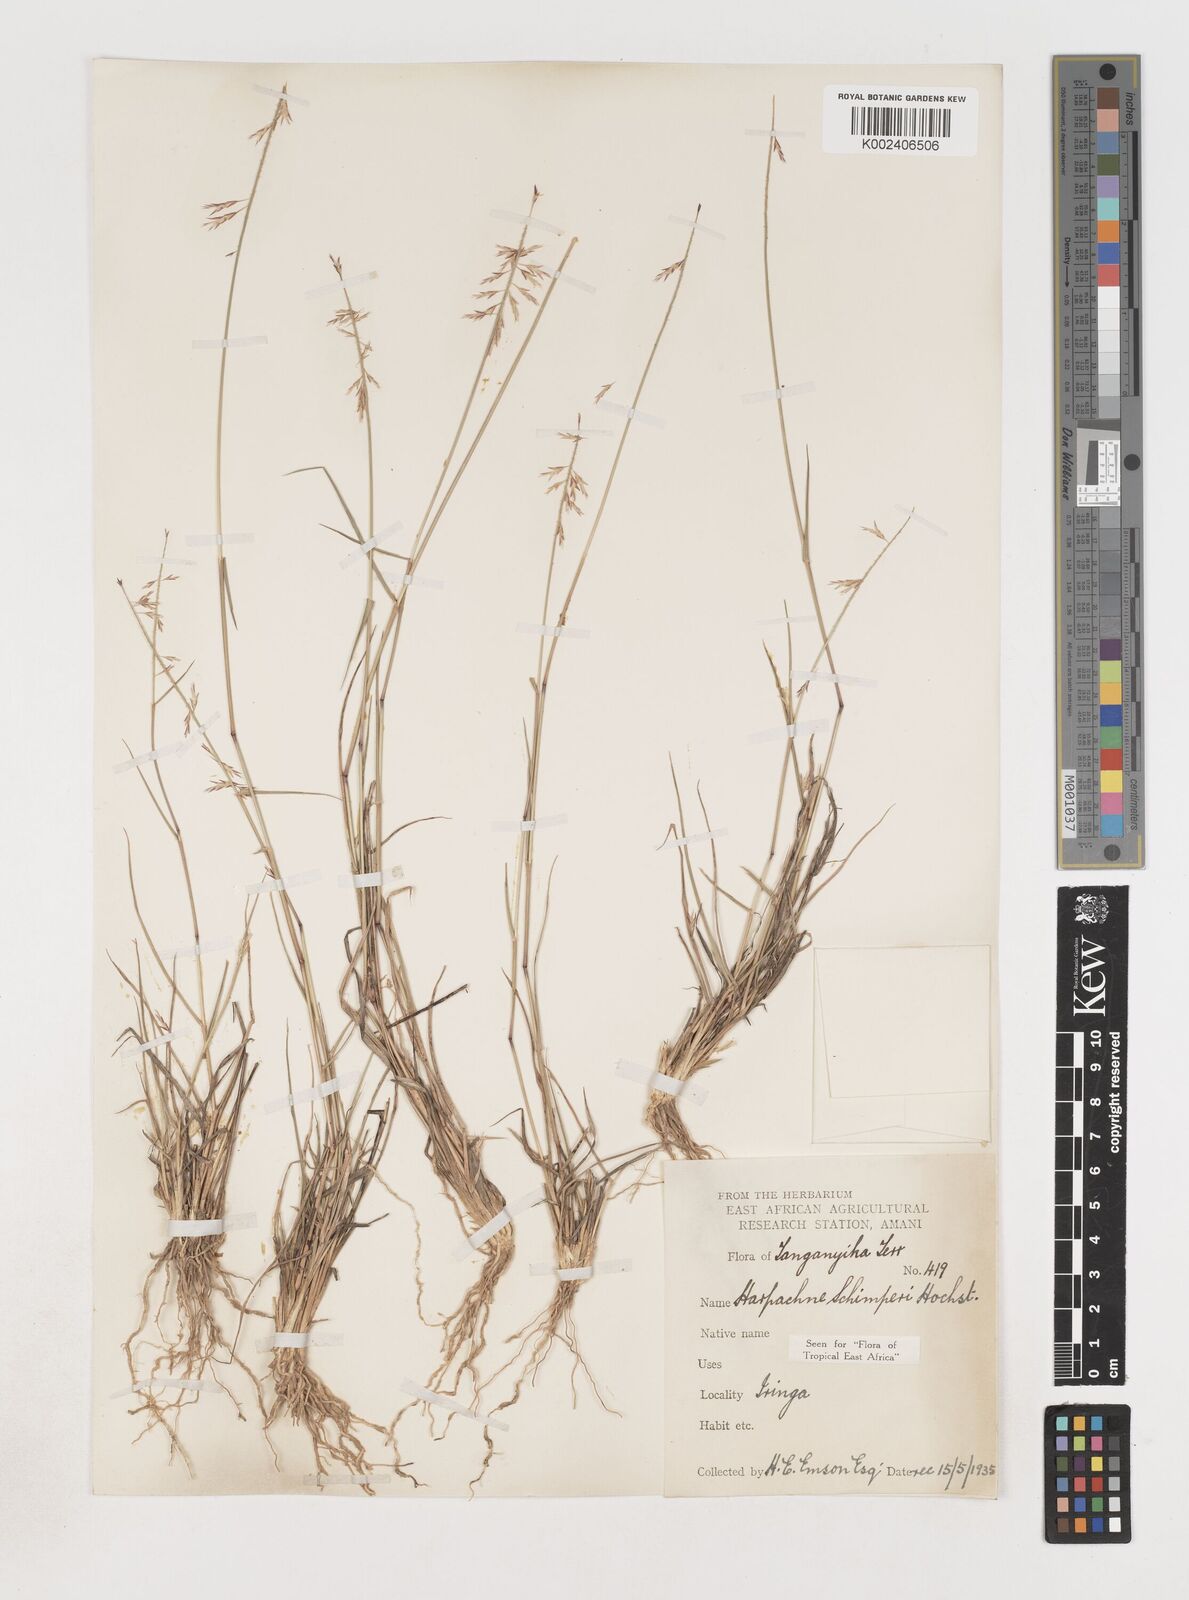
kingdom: Plantae
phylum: Tracheophyta
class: Liliopsida
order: Poales
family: Poaceae
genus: Harpachne
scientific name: Harpachne schimperi
